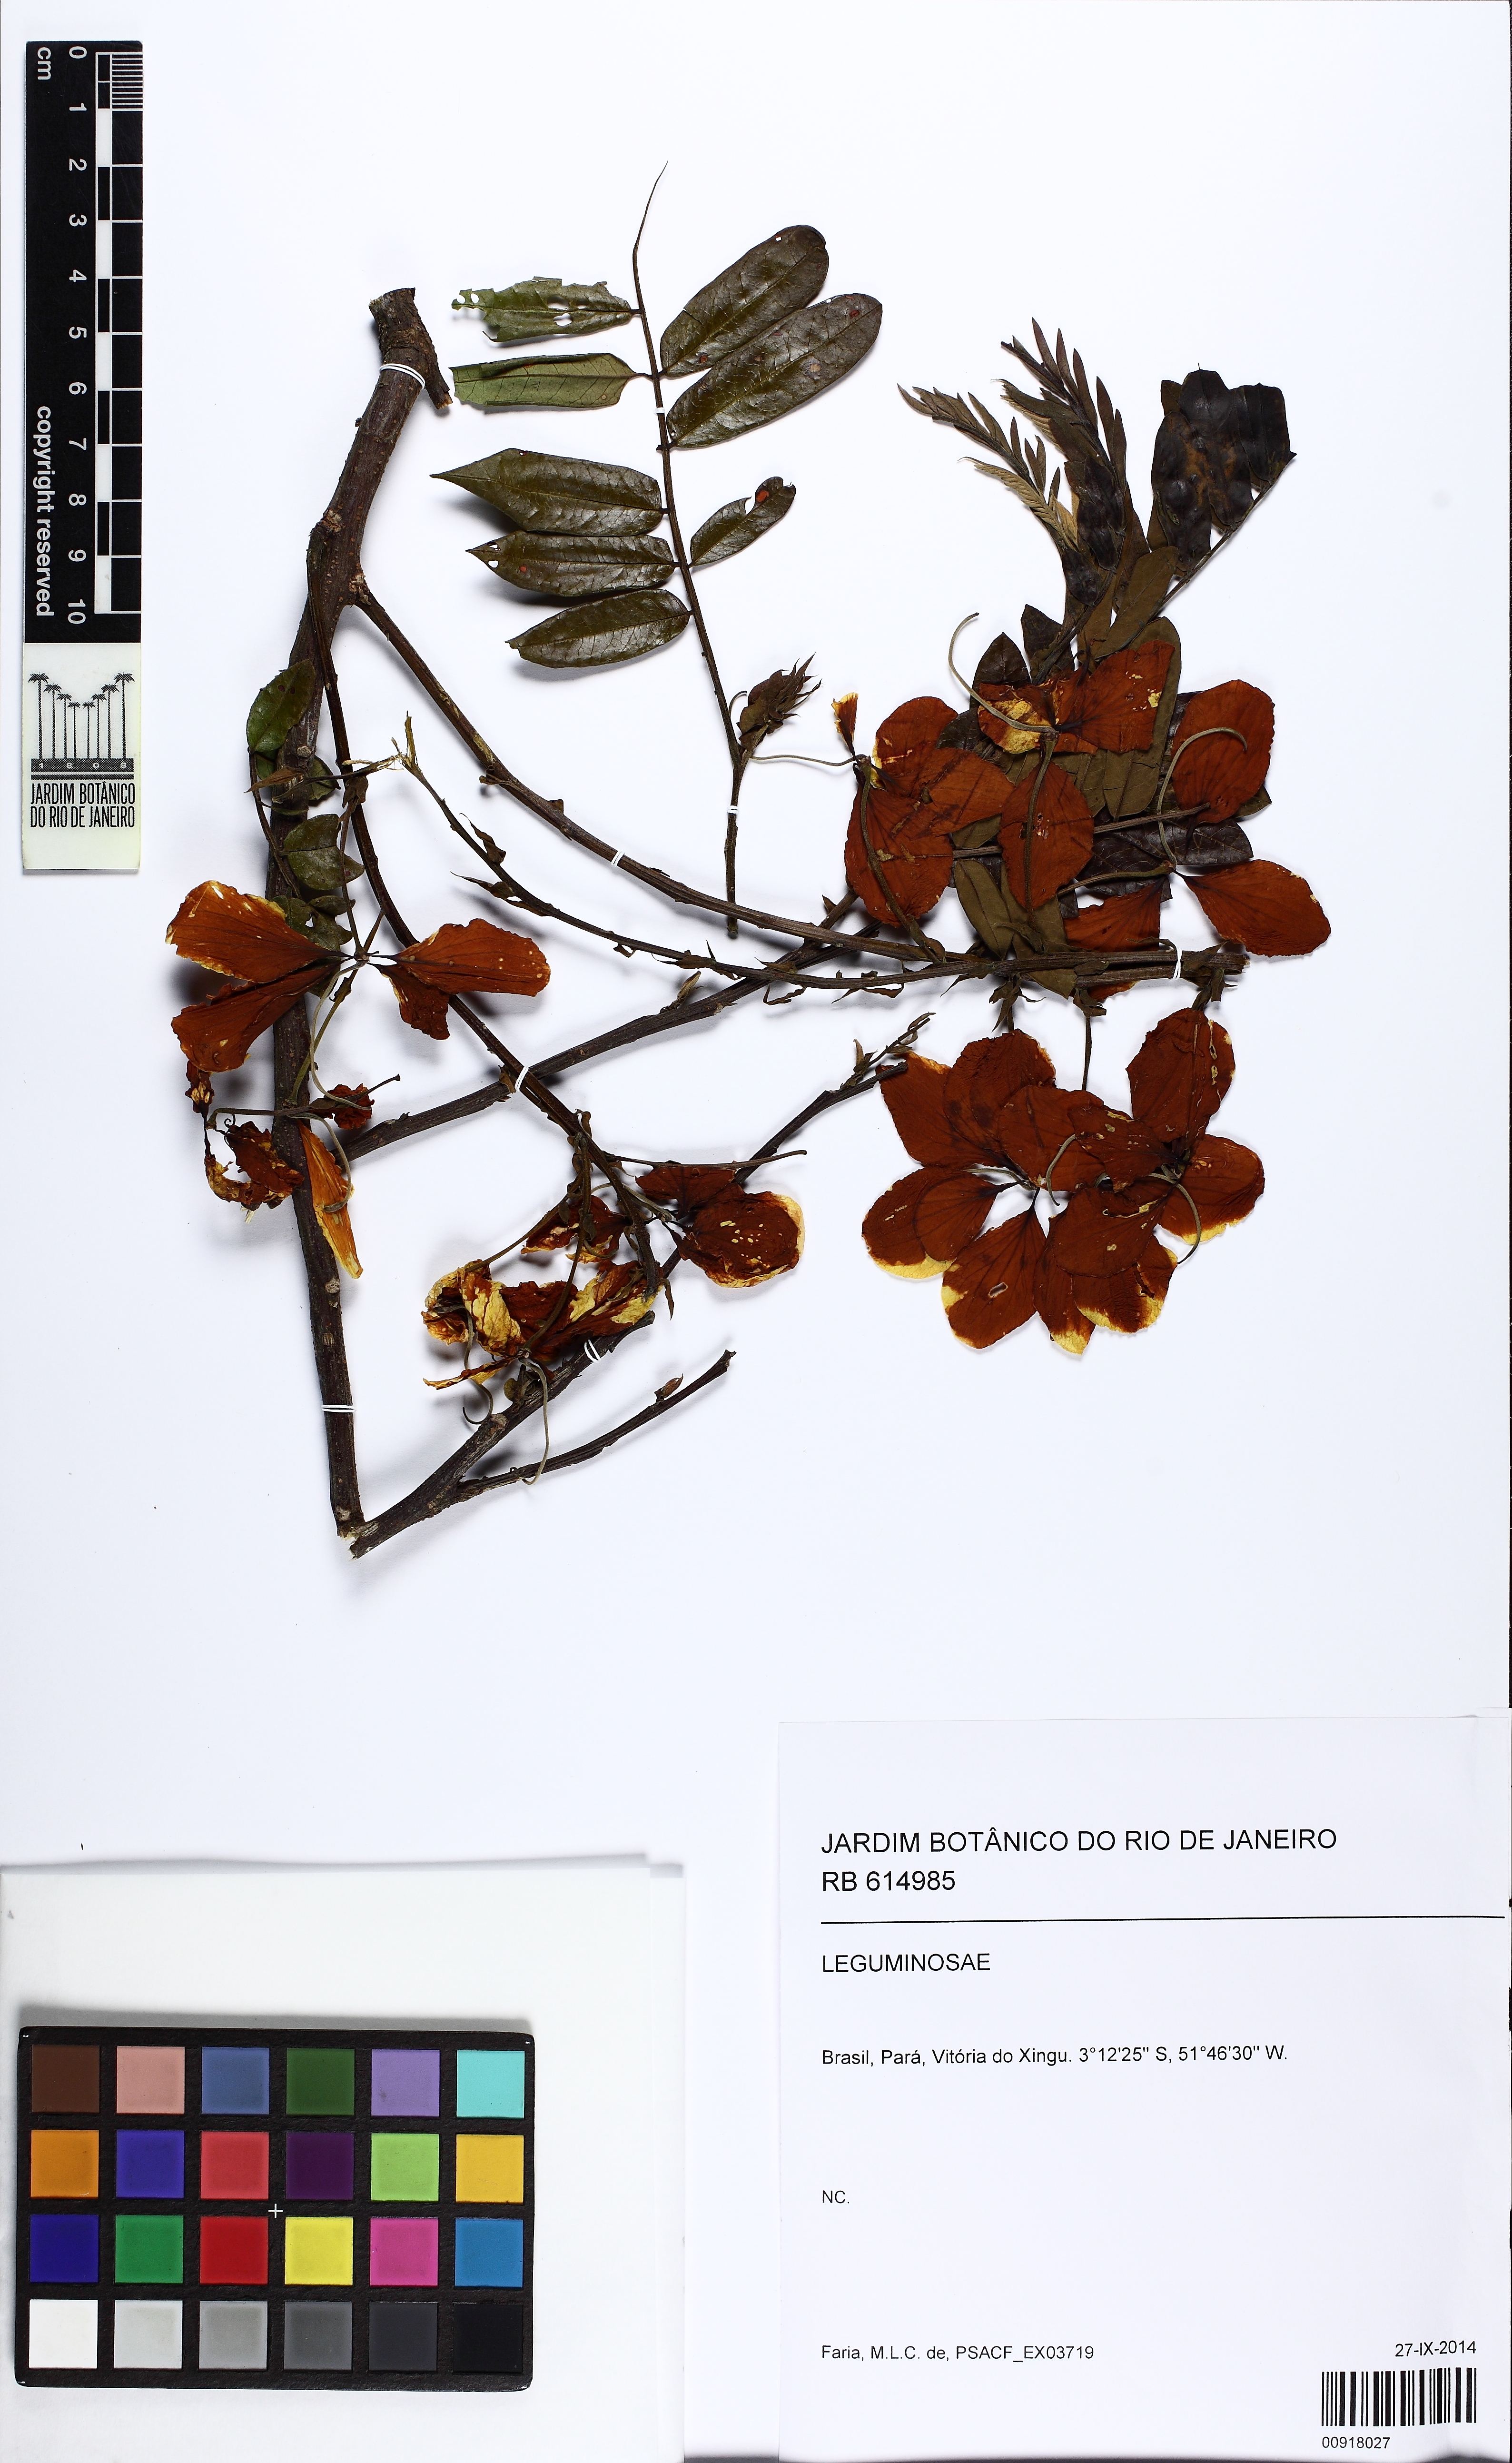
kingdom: Plantae
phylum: Tracheophyta
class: Magnoliopsida
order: Fabales
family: Fabaceae
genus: Cassia
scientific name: Cassia
